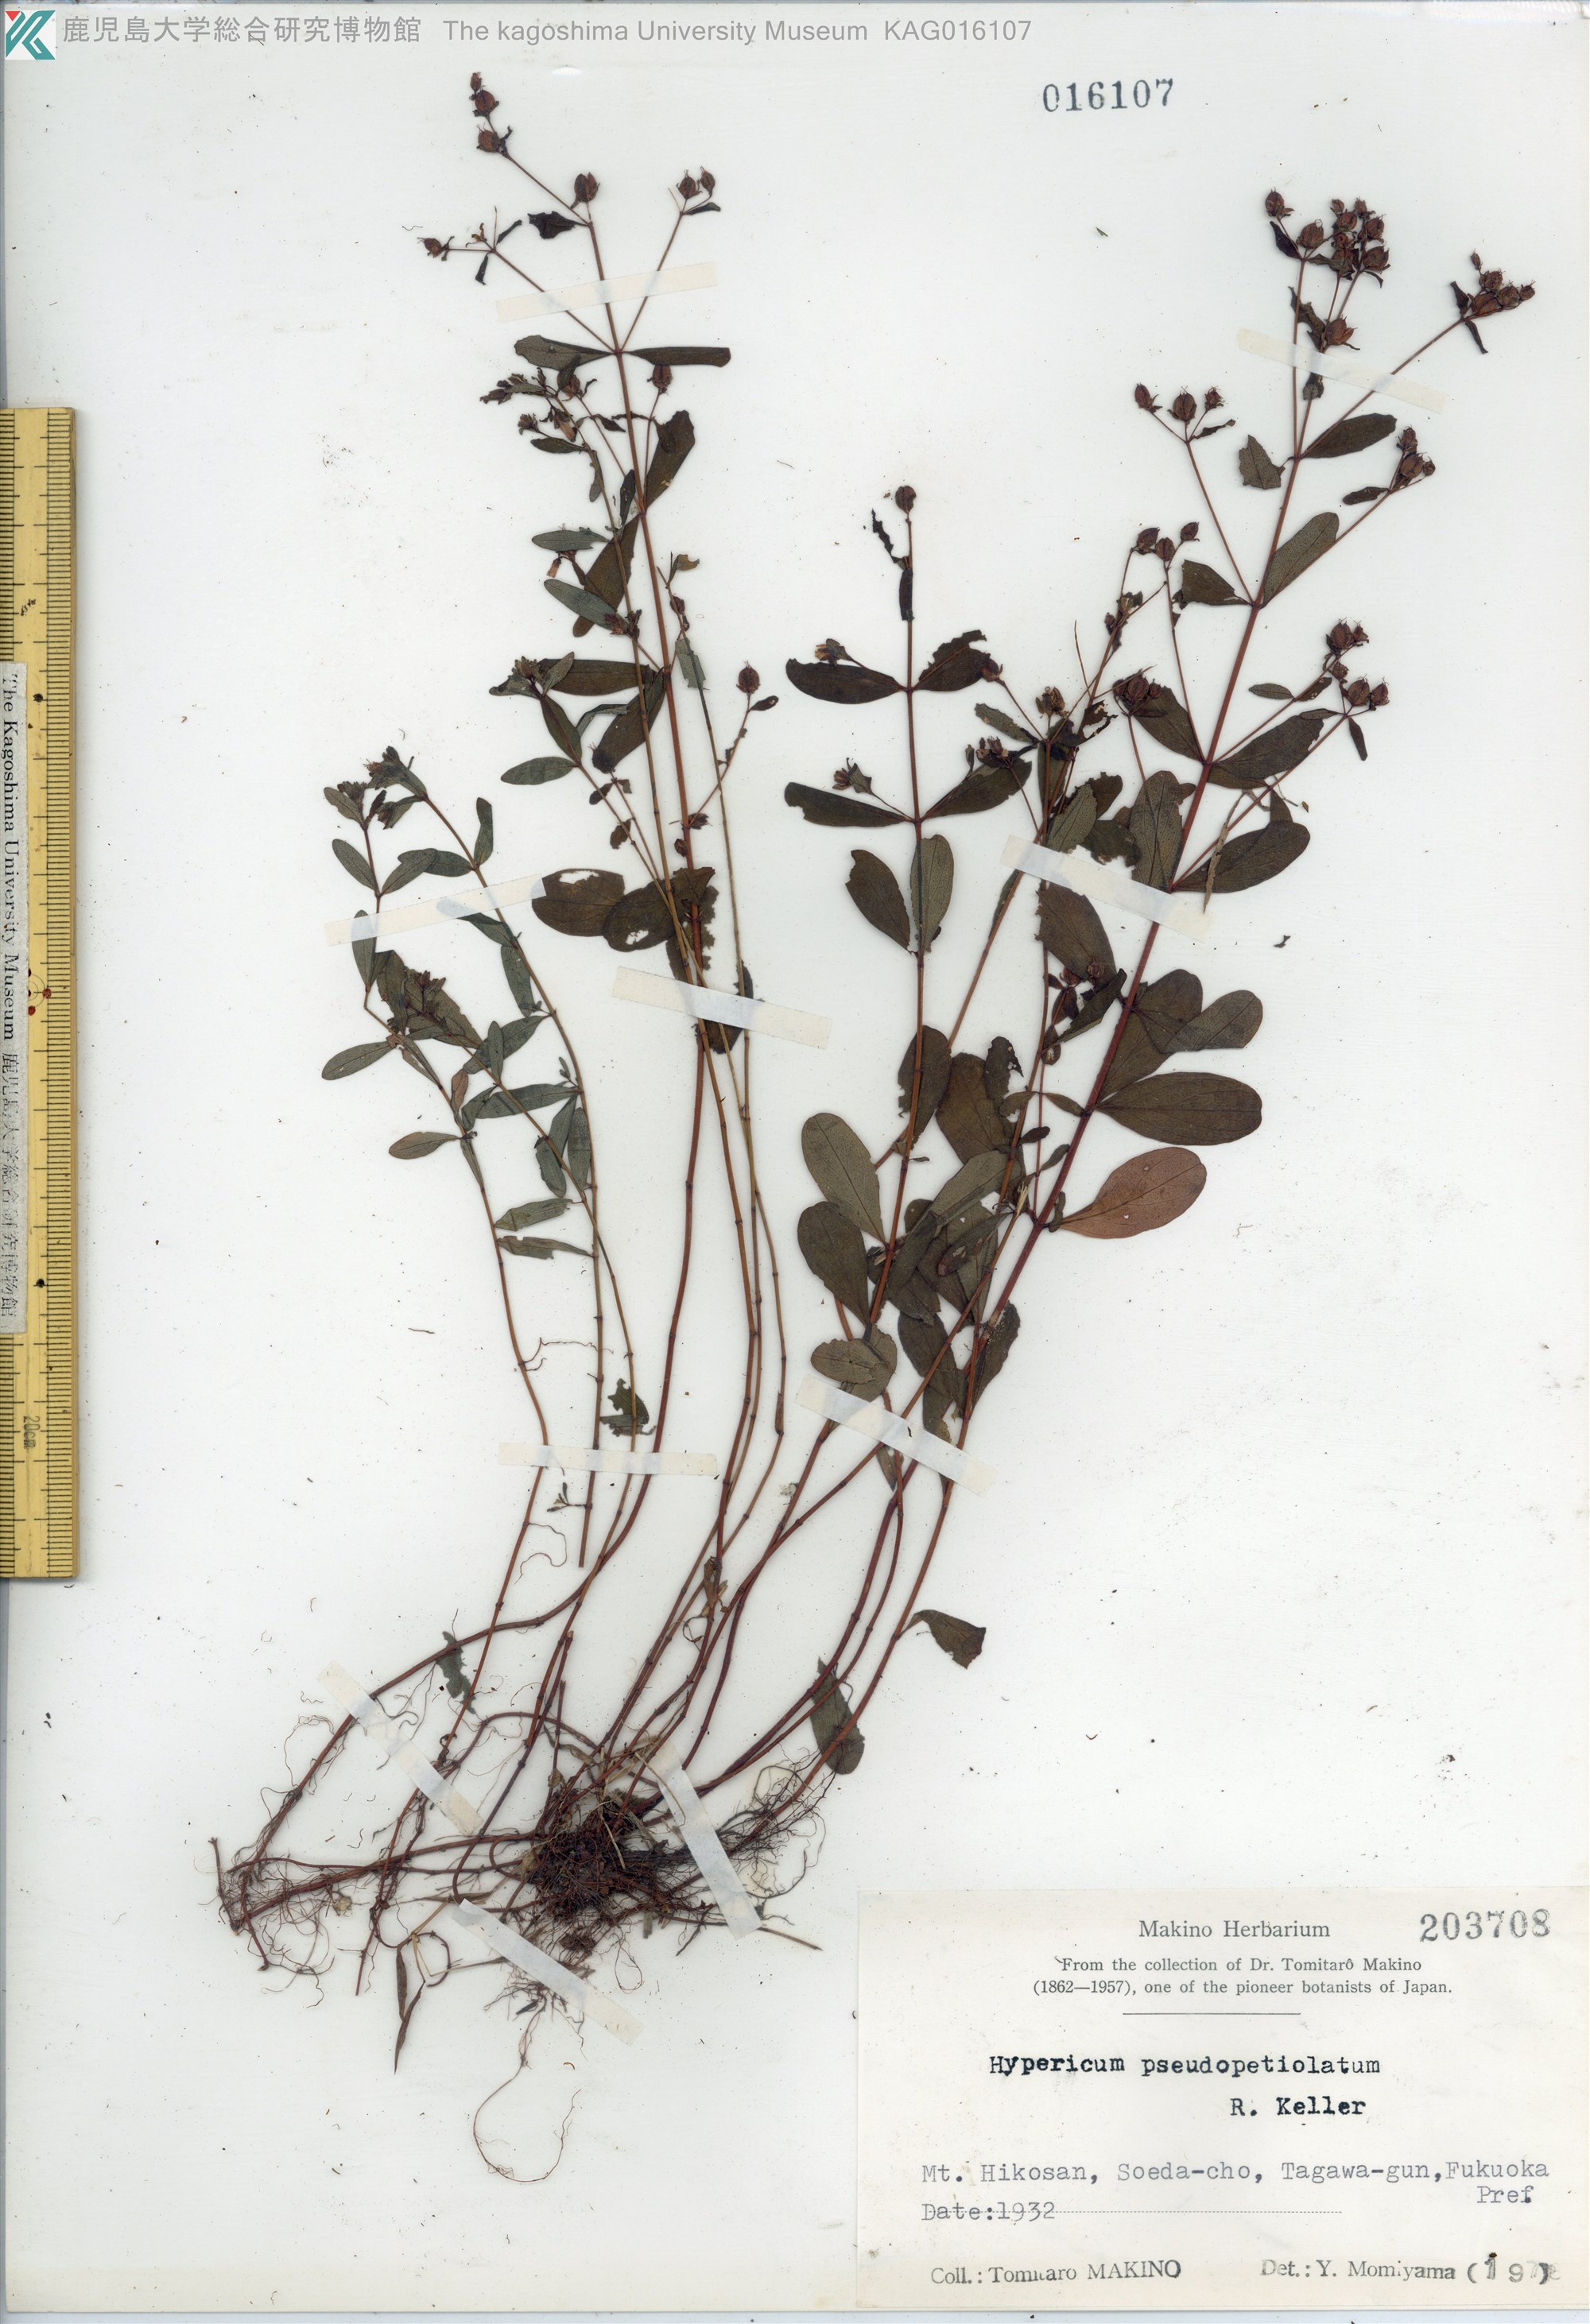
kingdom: Plantae
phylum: Tracheophyta
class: Magnoliopsida
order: Malpighiales
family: Hypericaceae
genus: Hypericum
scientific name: Hypericum pseudopetiolatum
